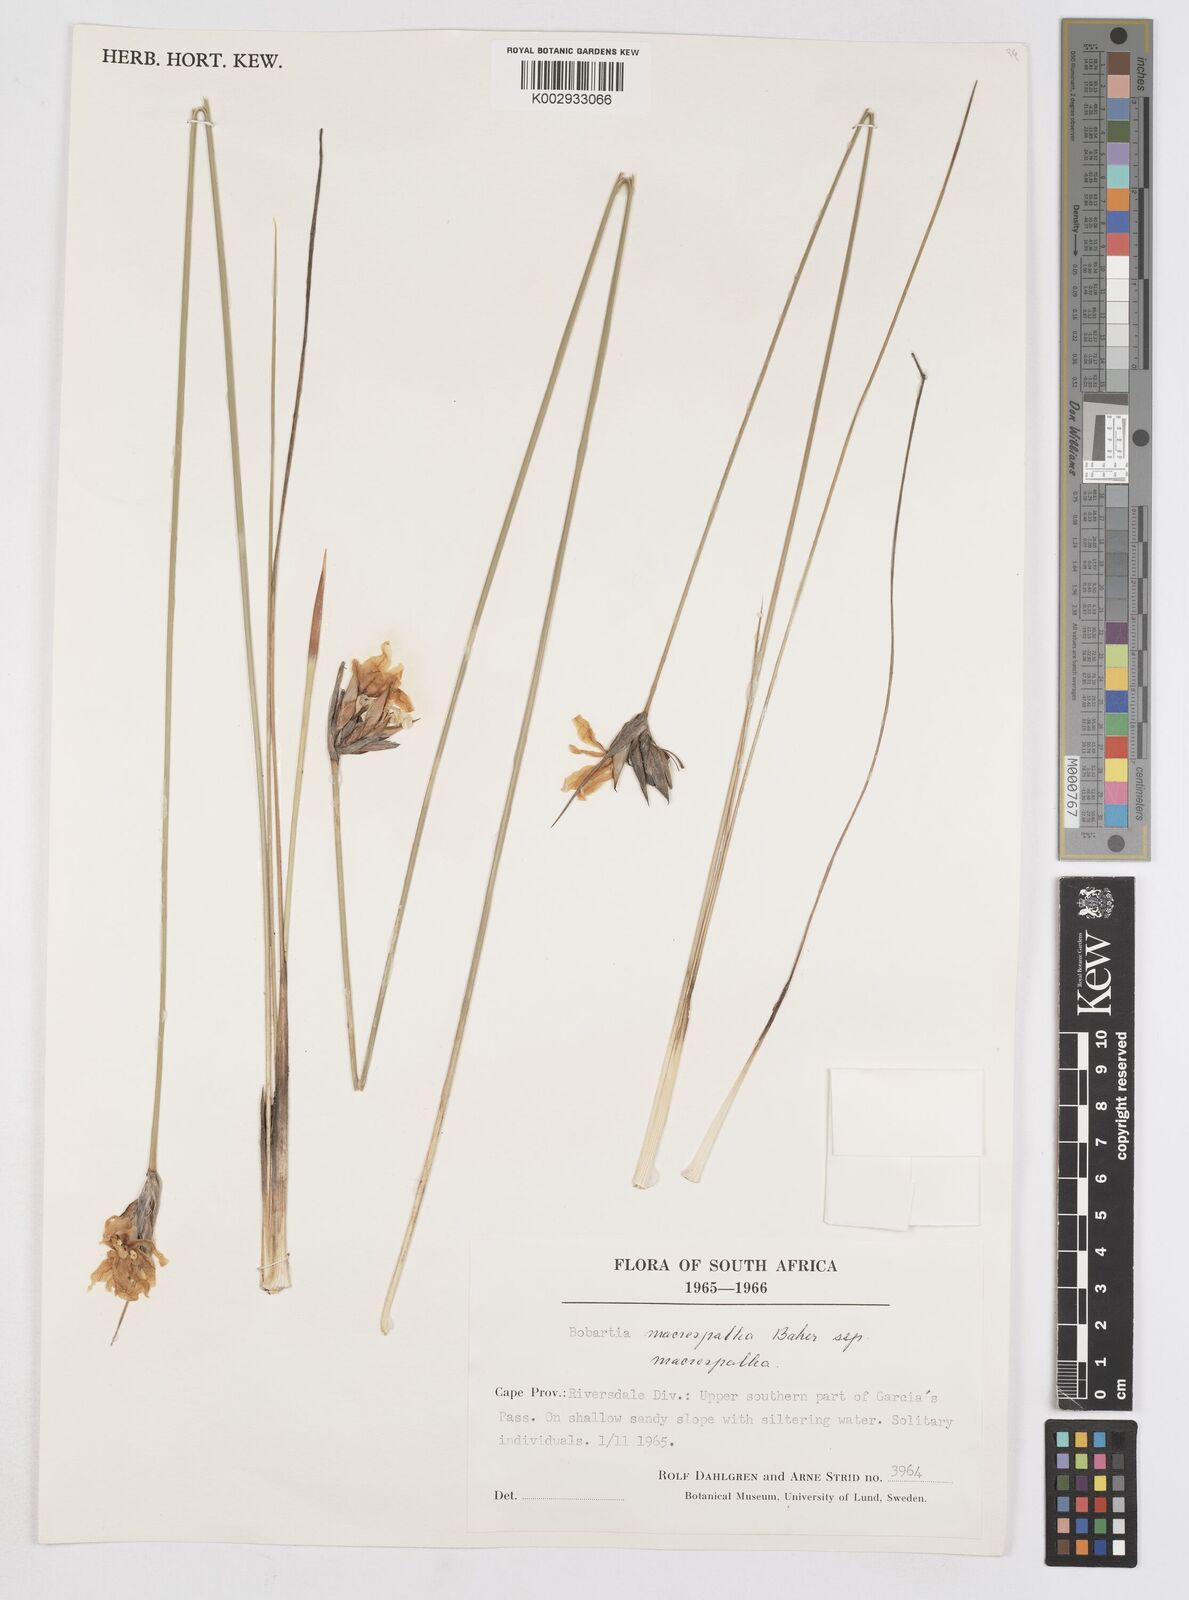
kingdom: Plantae
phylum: Tracheophyta
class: Liliopsida
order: Asparagales
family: Iridaceae
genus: Bobartia
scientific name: Bobartia macrospatha
